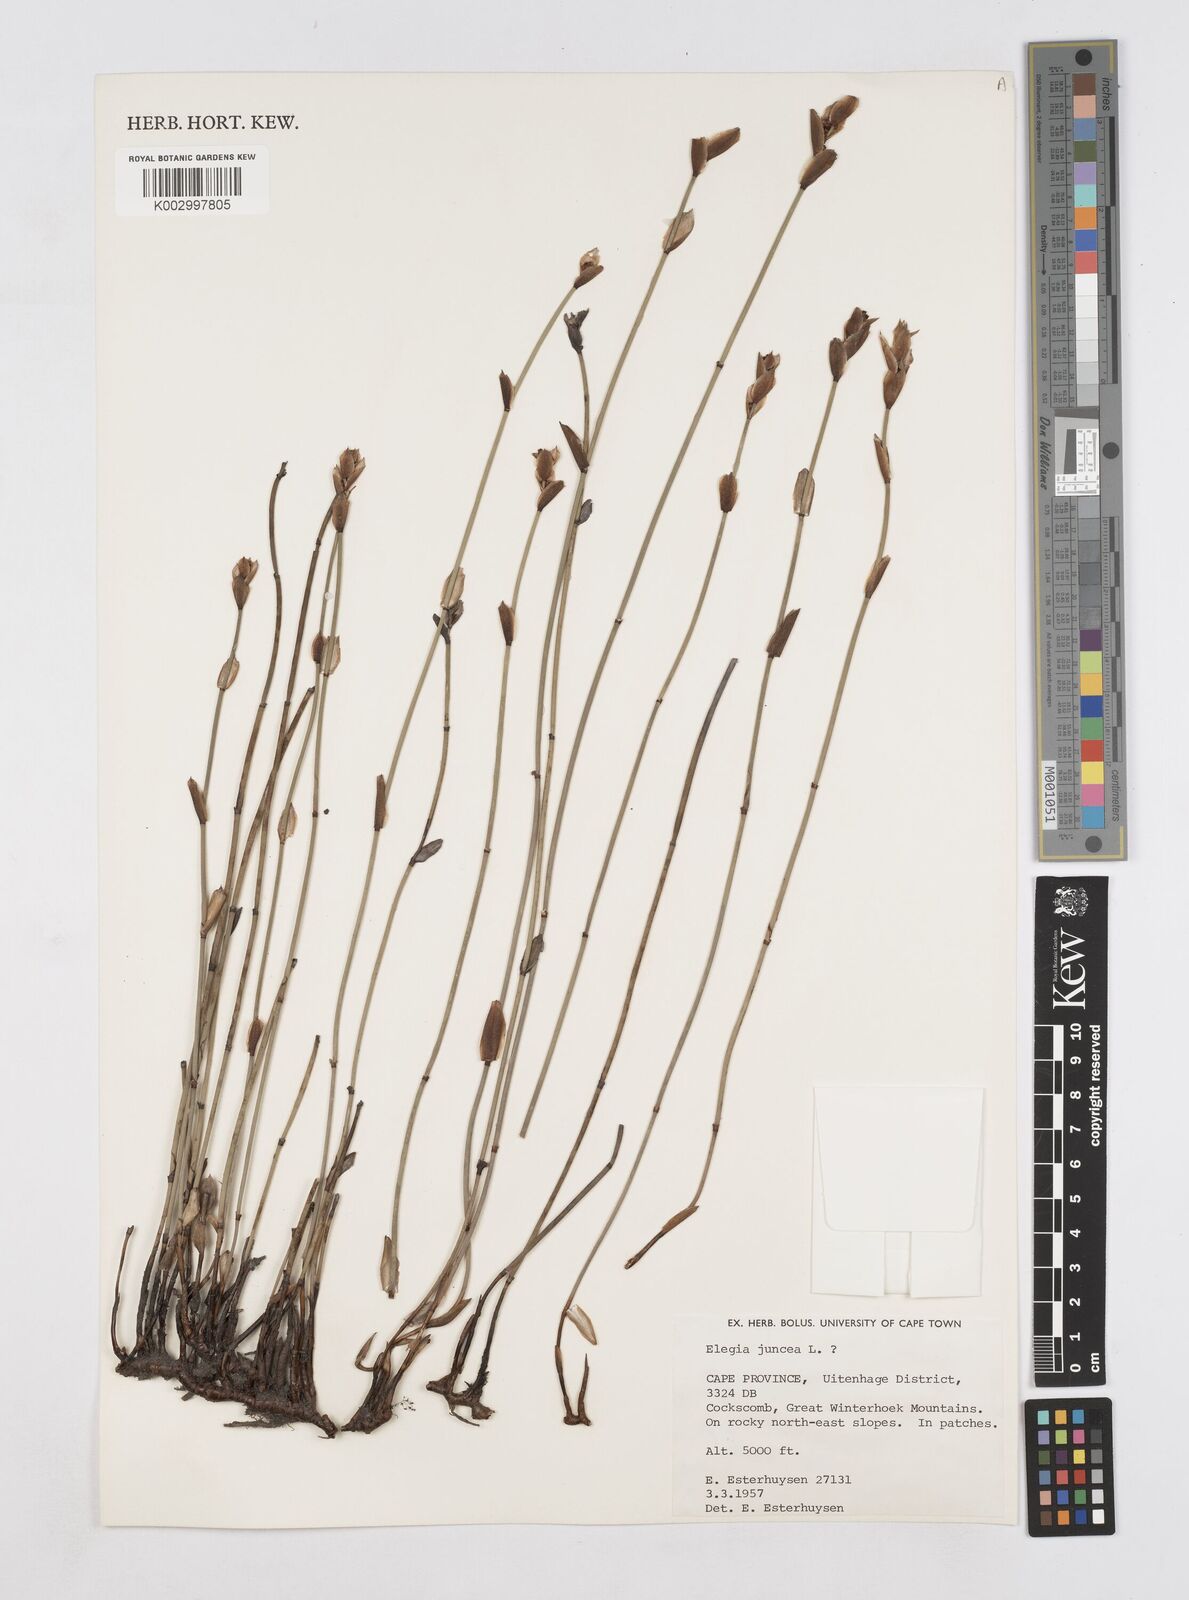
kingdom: Plantae
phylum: Tracheophyta
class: Liliopsida
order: Poales
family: Restionaceae
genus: Elegia
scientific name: Elegia juncea
